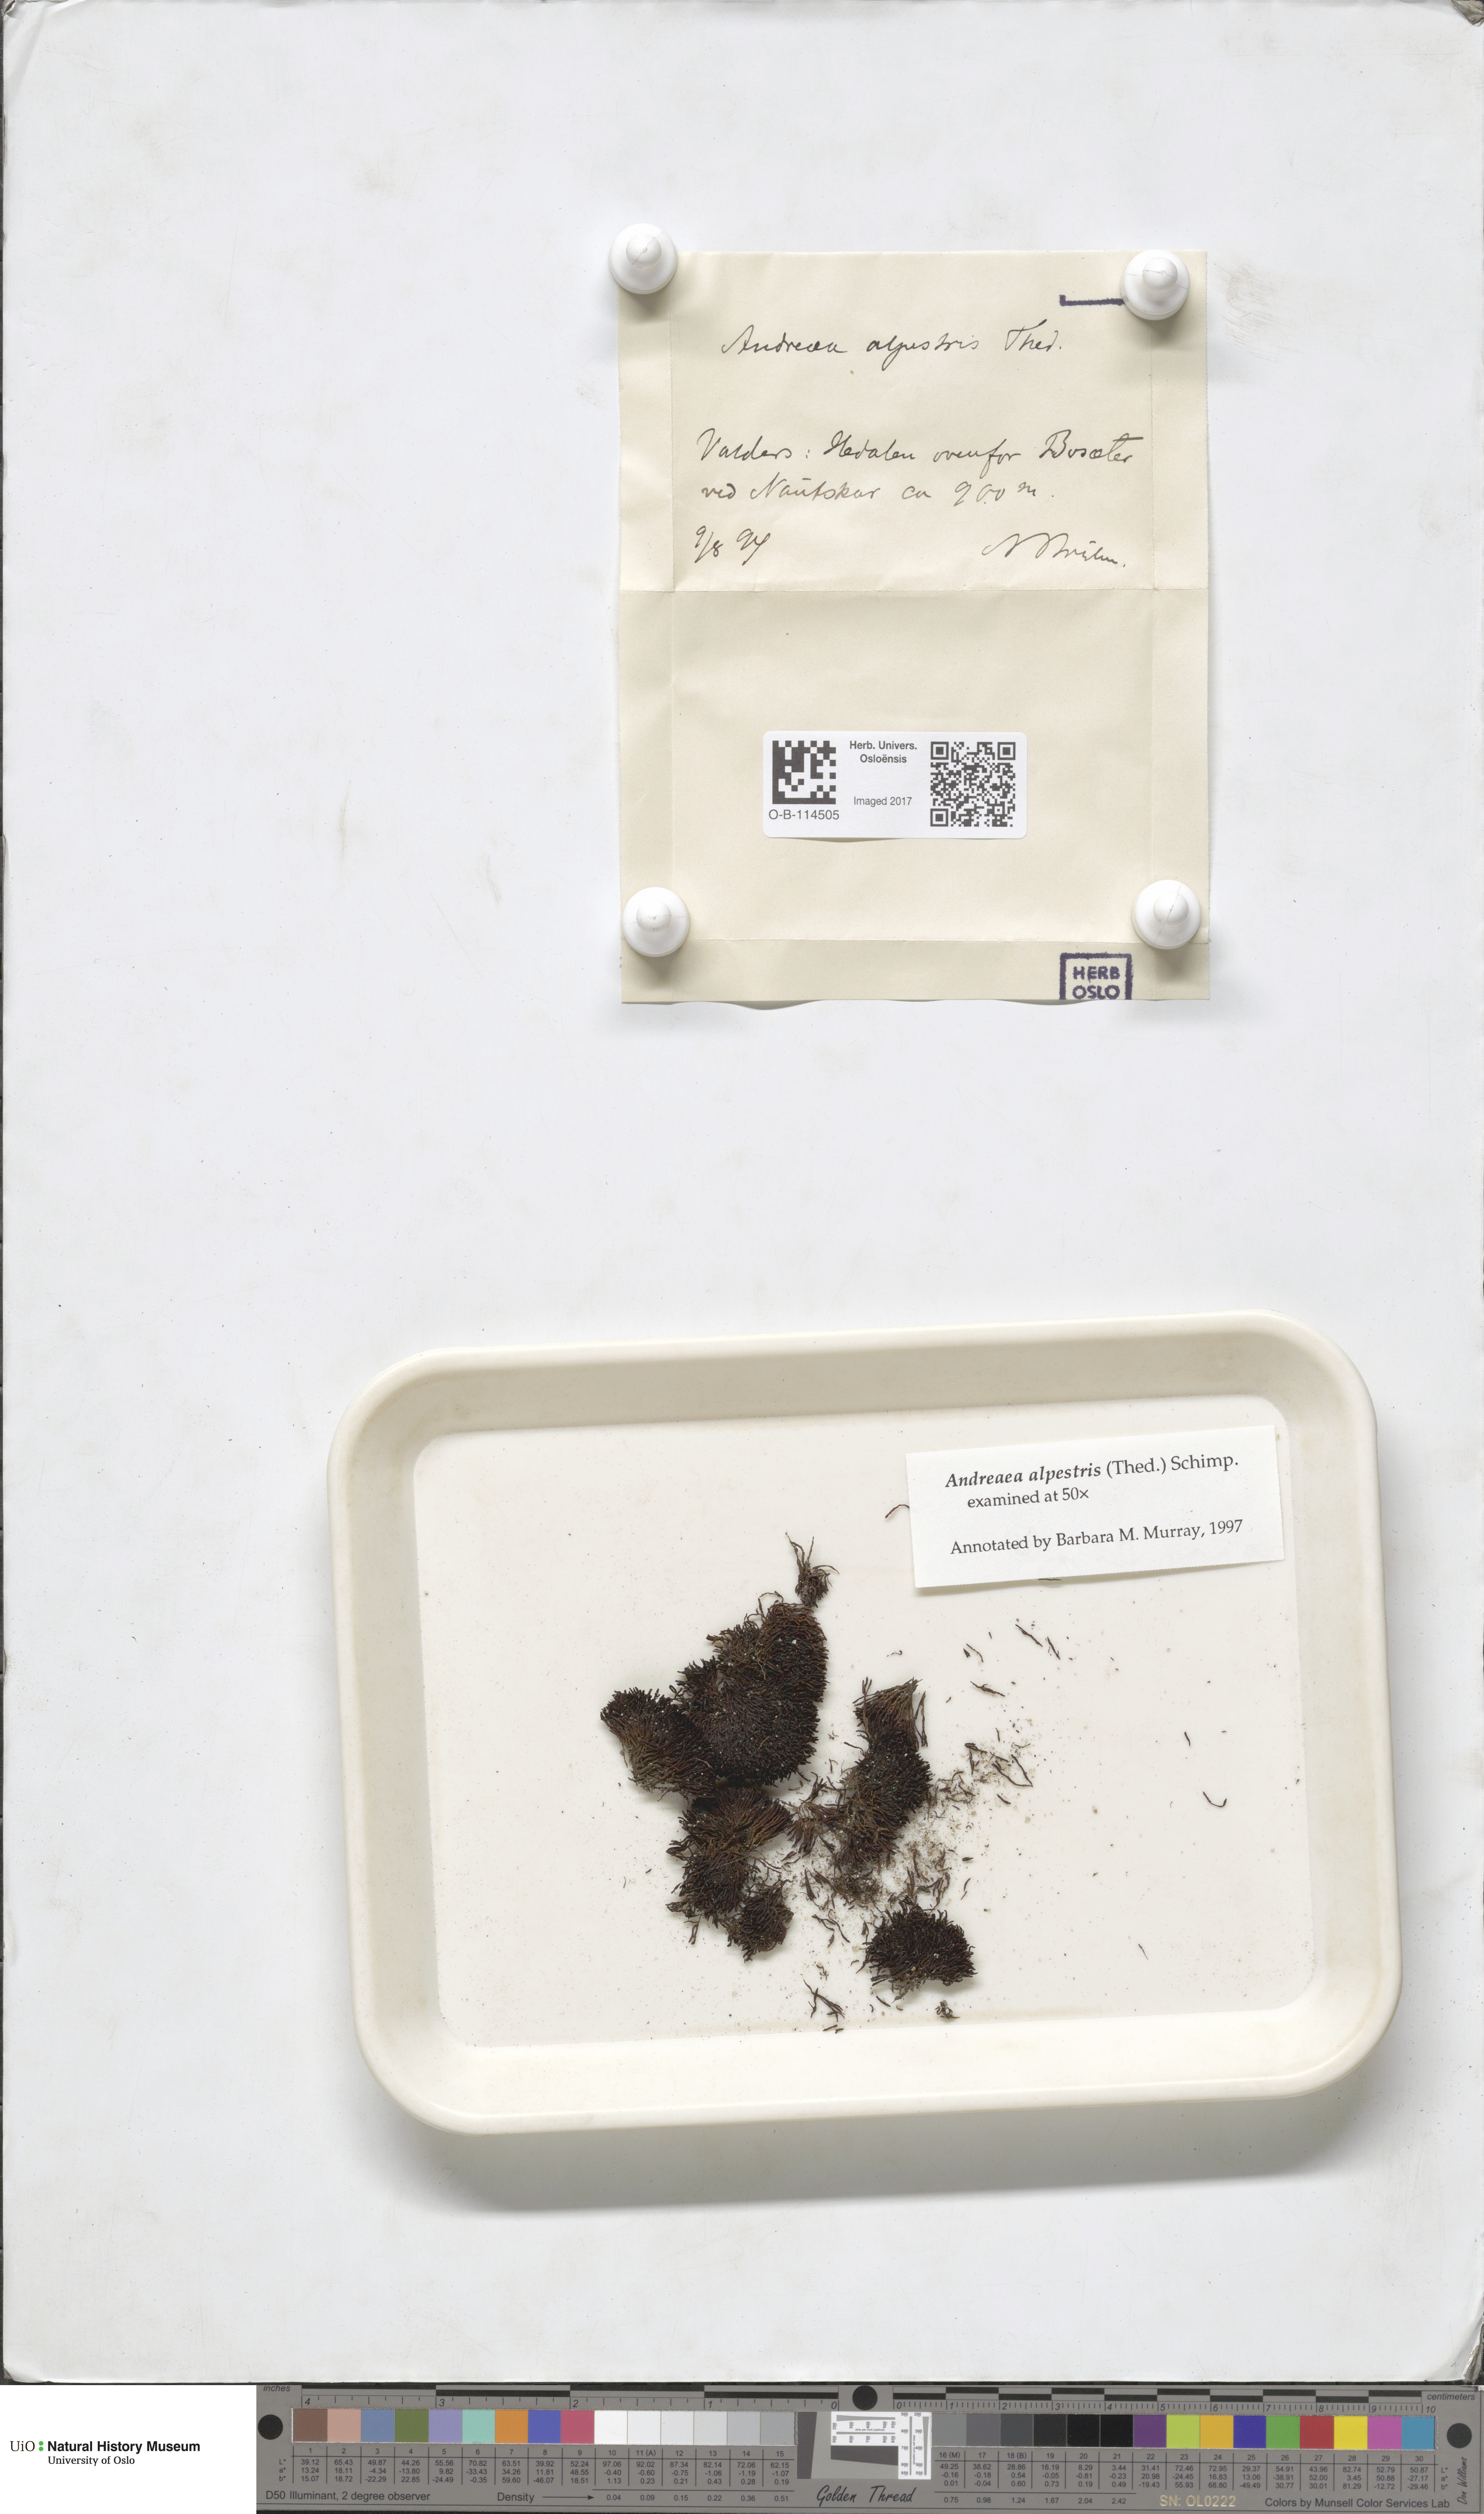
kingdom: Plantae
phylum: Bryophyta
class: Andreaeopsida
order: Andreaeales
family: Andreaeaceae
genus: Andreaea
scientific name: Andreaea alpestris
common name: Slender rock-moss
